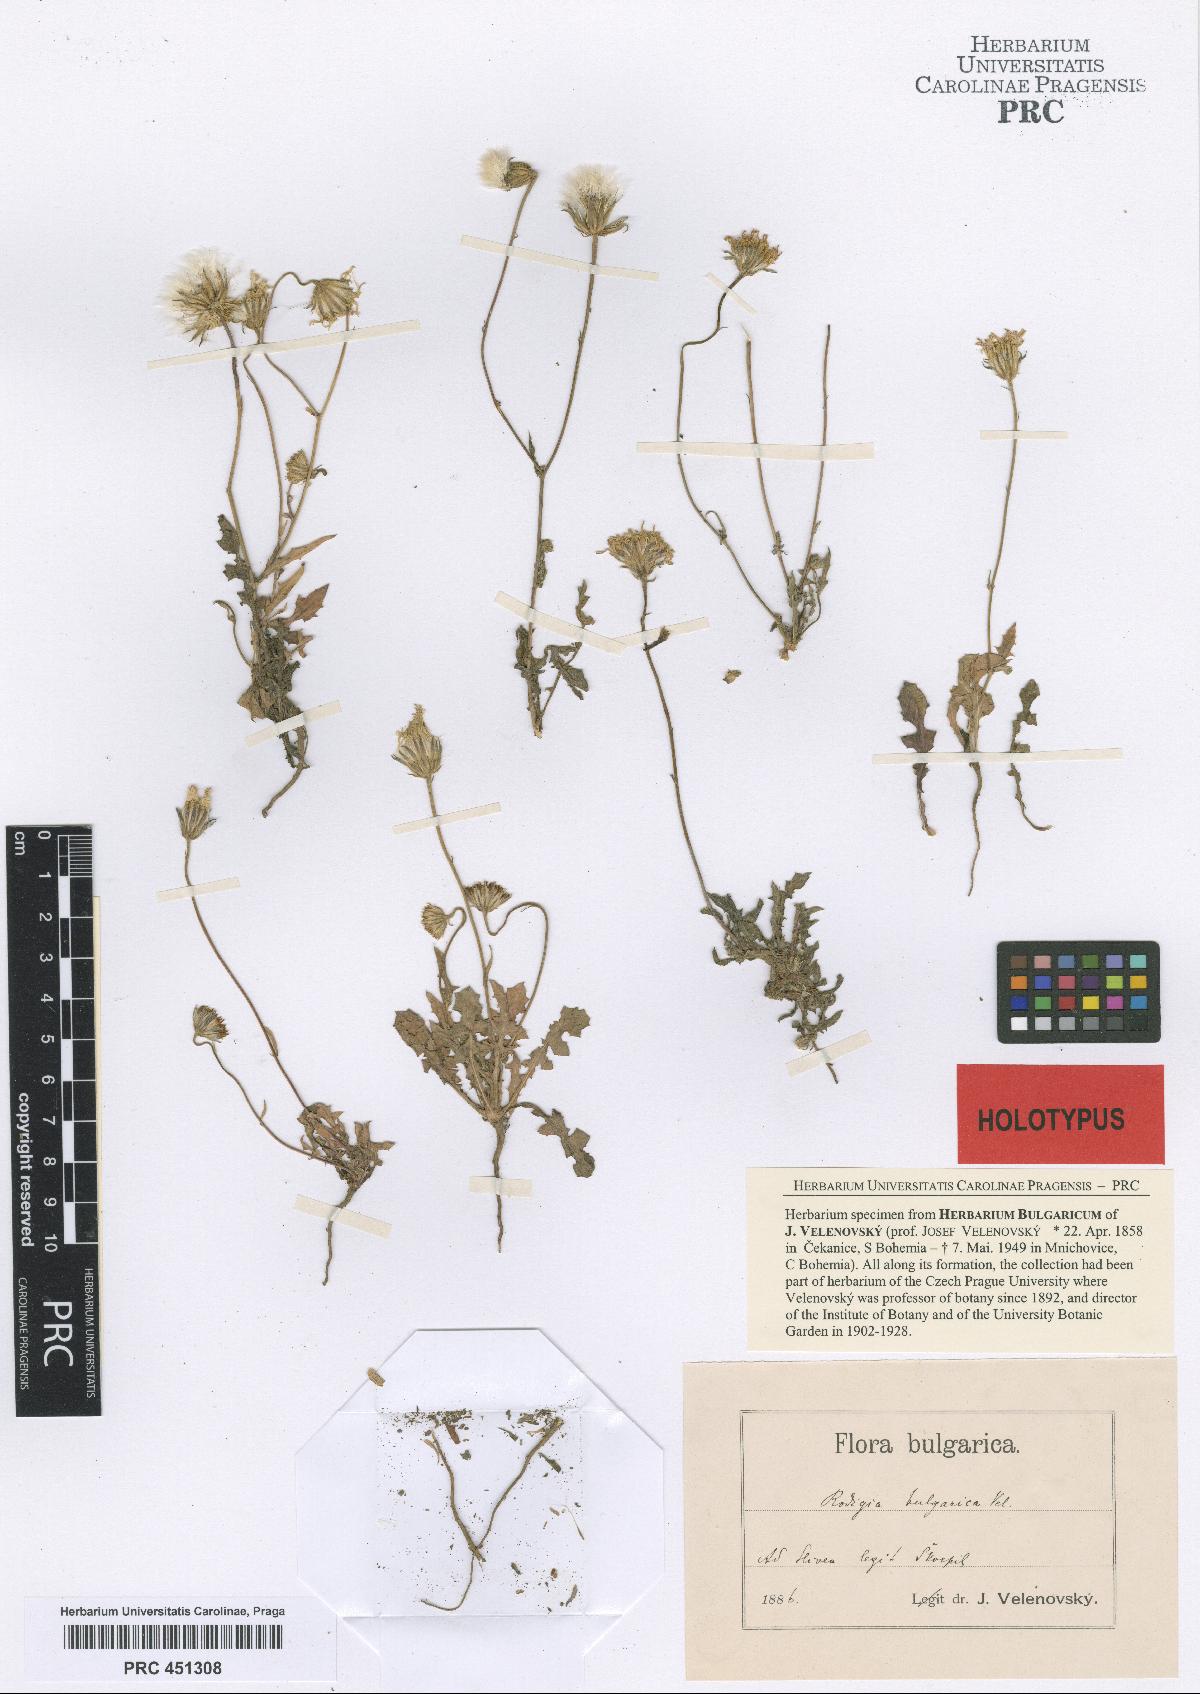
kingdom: Plantae
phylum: Tracheophyta
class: Magnoliopsida
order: Asterales
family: Asteraceae
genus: Crepis
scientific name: Crepis commutata
